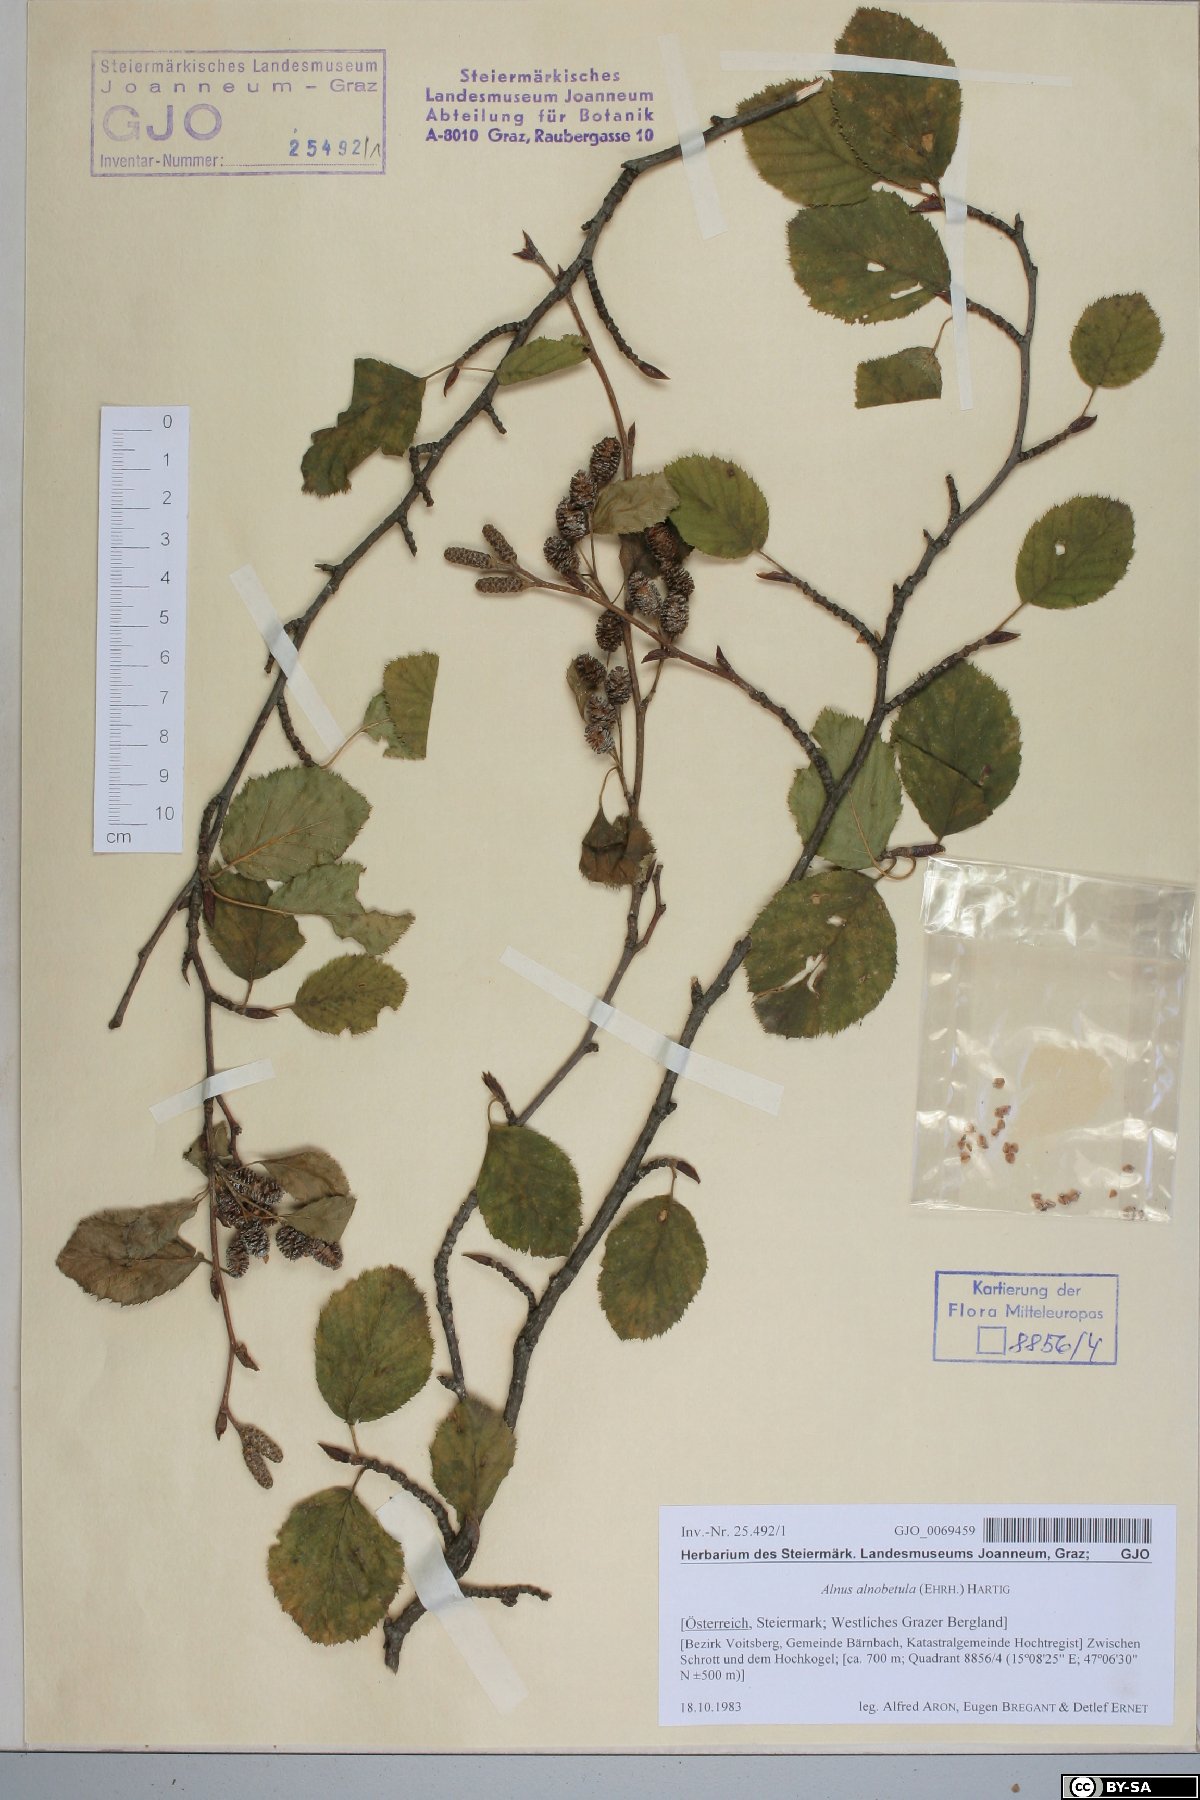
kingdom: Plantae
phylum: Tracheophyta
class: Magnoliopsida
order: Fagales
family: Betulaceae
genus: Alnus
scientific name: Alnus alnobetula
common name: Green alder
